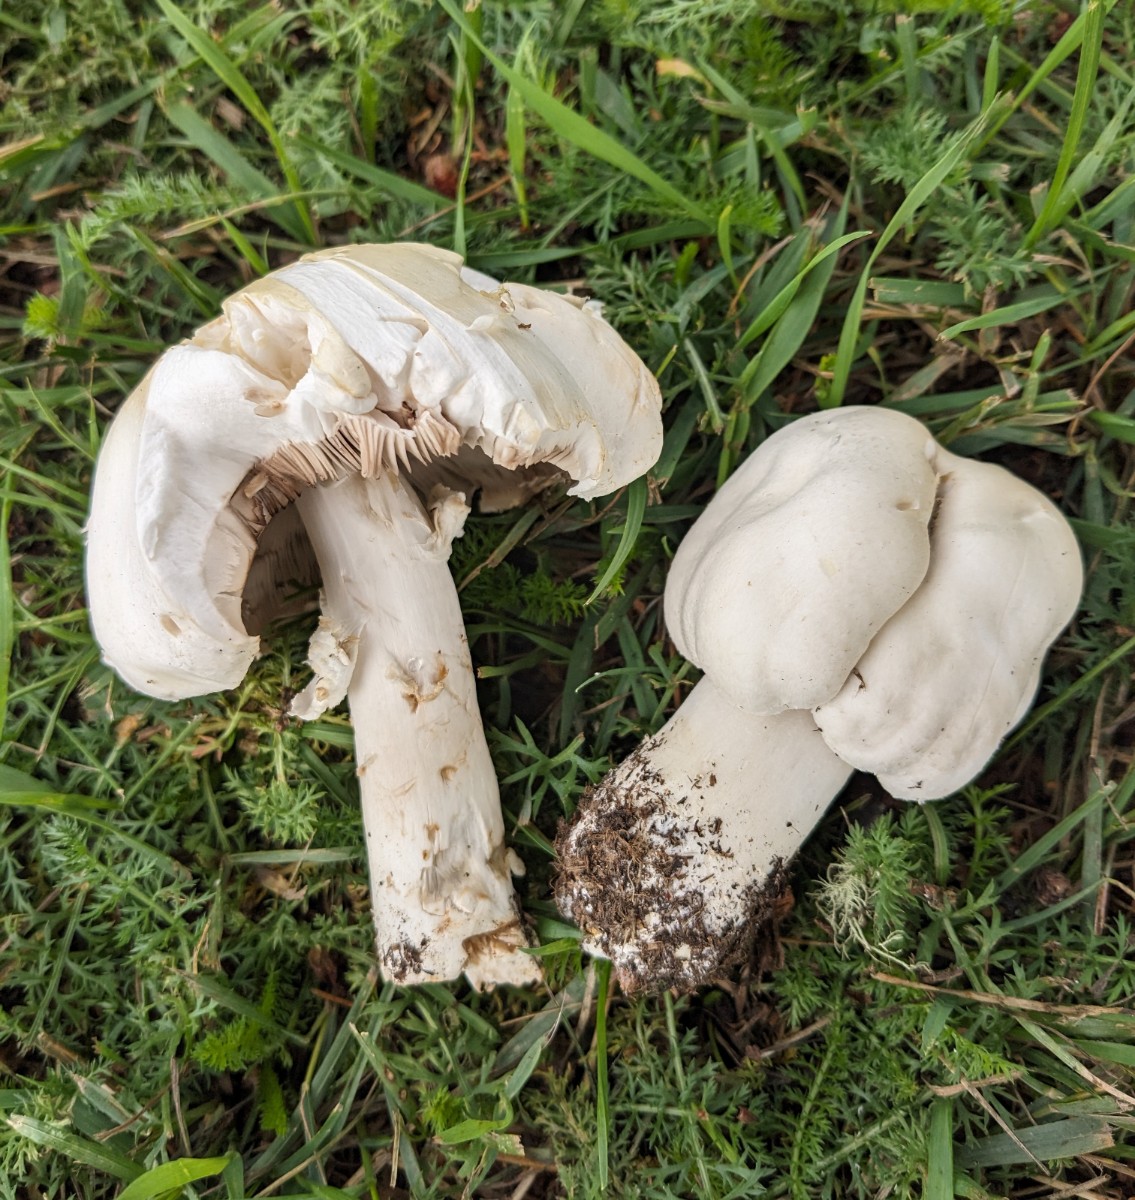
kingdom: Fungi
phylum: Basidiomycota
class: Agaricomycetes
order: Agaricales
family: Agaricaceae
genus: Agaricus
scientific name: Agaricus arvensis
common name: ager-champignon
